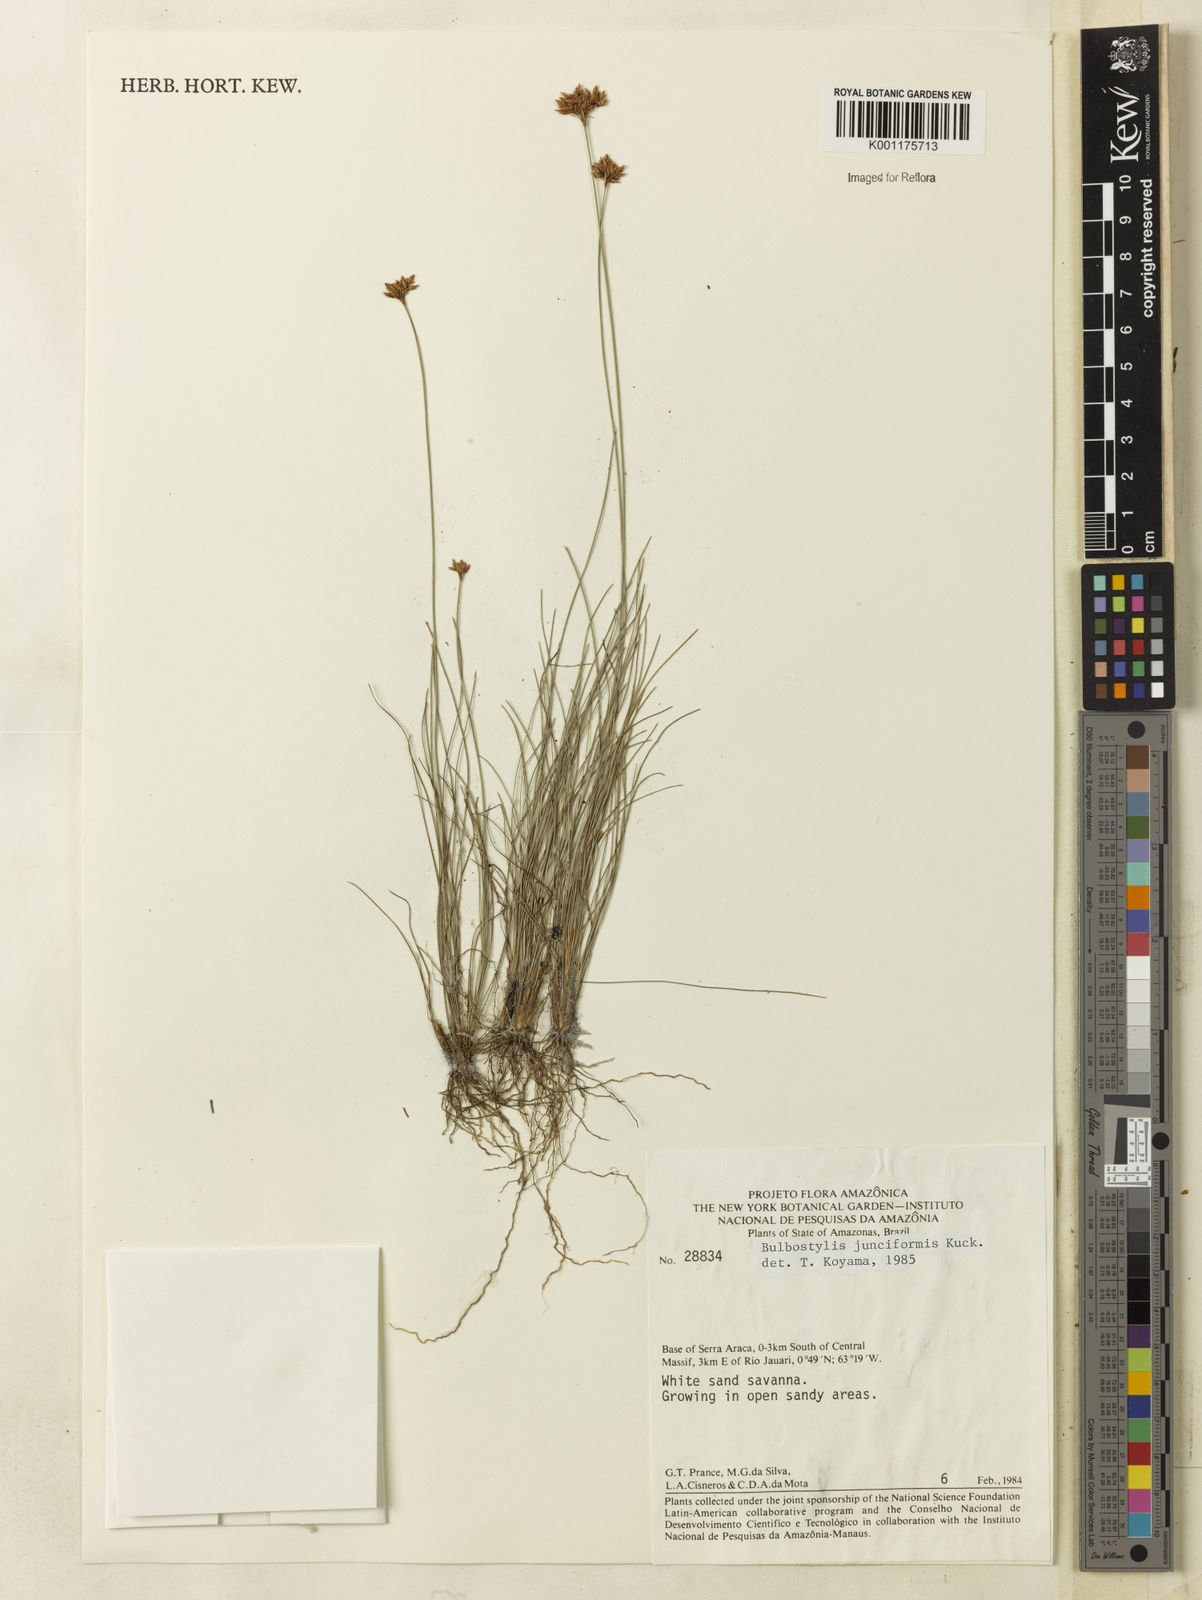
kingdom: Plantae
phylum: Tracheophyta
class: Liliopsida
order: Poales
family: Cyperaceae
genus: Bulbostylis
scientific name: Bulbostylis junciformis
